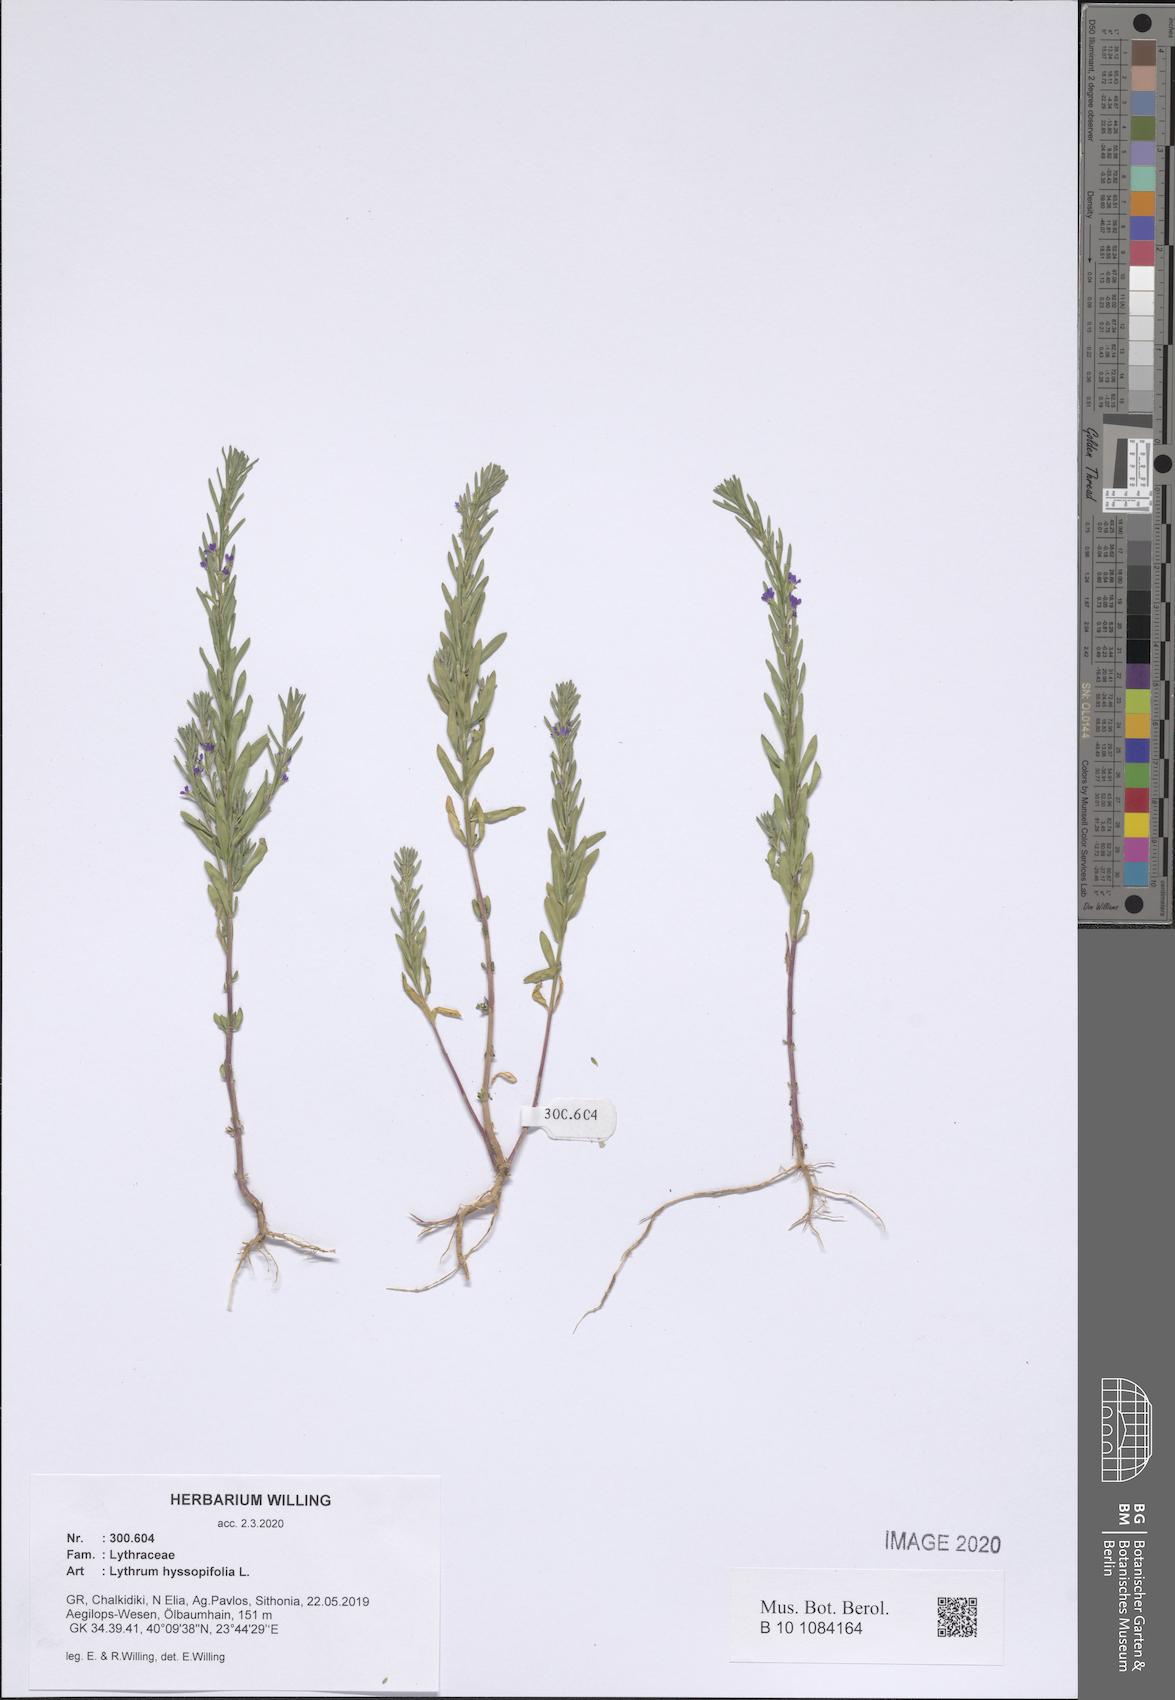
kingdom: Plantae
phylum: Tracheophyta
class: Magnoliopsida
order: Myrtales
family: Lythraceae
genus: Lythrum
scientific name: Lythrum hyssopifolia
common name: Grass-poly
